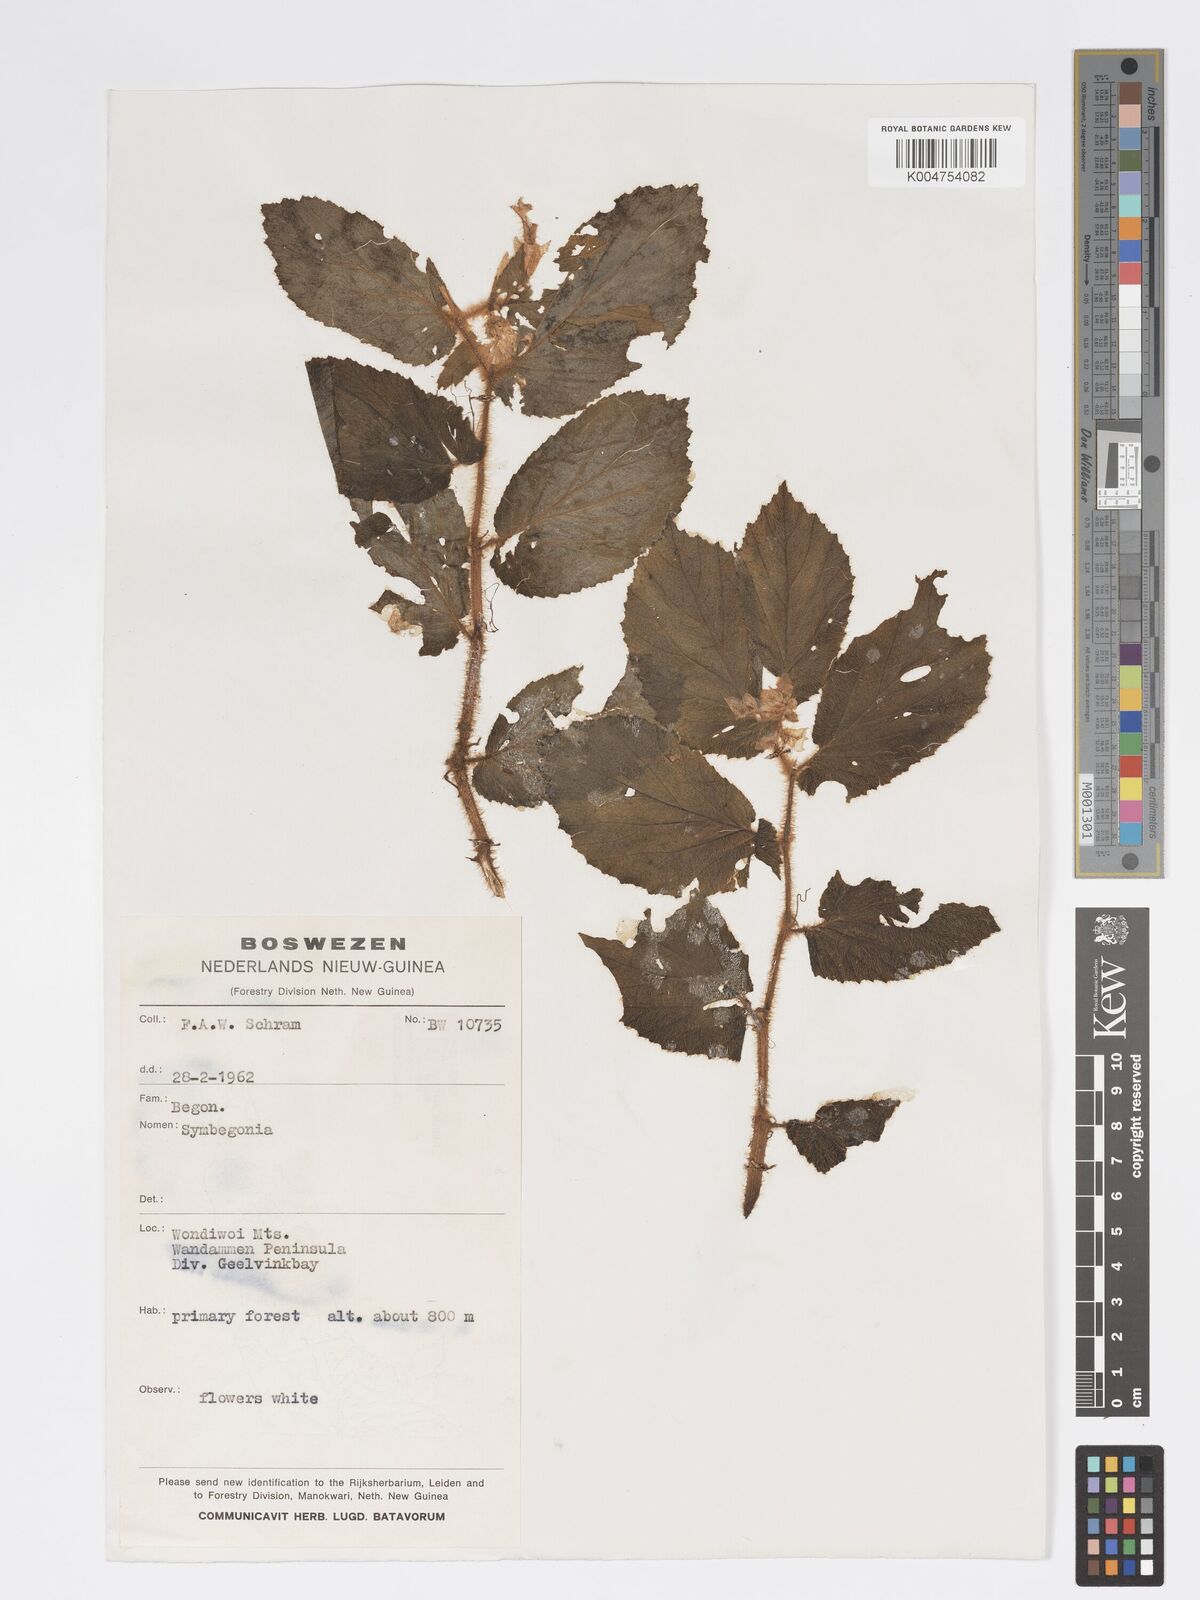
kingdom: Plantae
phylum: Tracheophyta
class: Magnoliopsida
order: Cucurbitales
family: Begoniaceae
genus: Begonia
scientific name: Begonia
